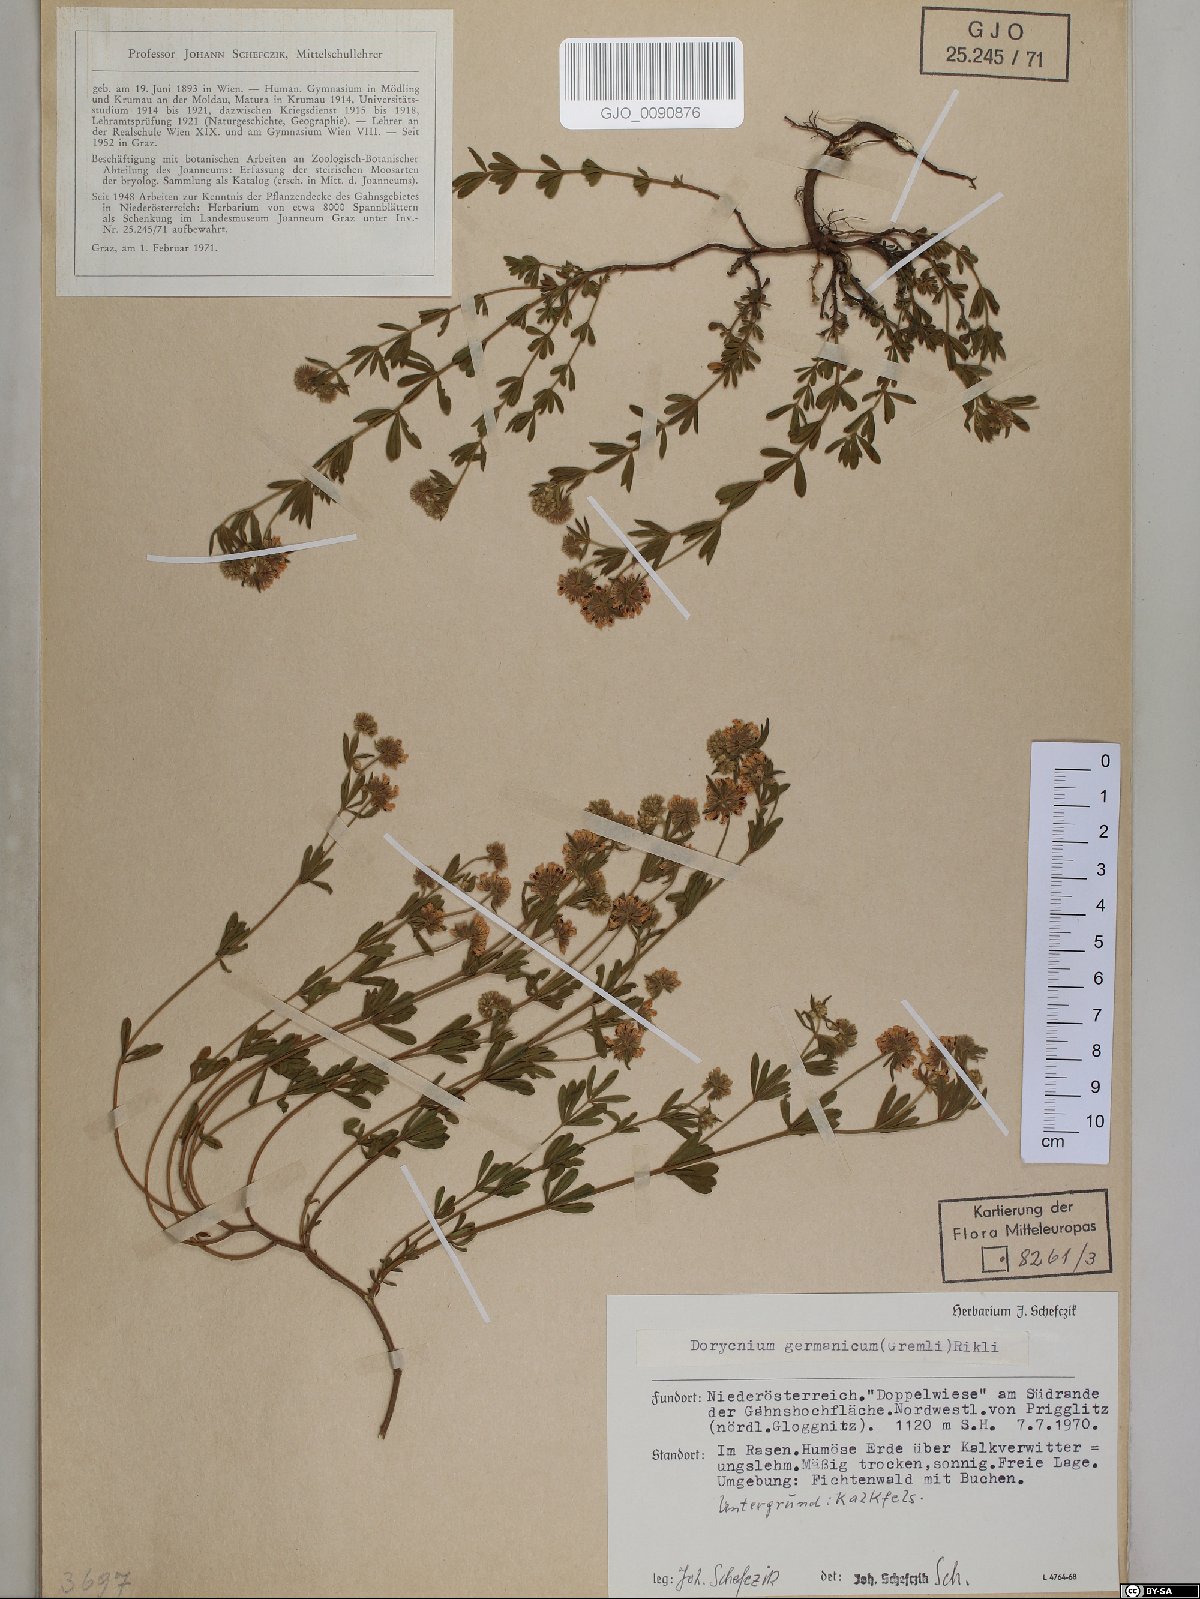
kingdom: Plantae
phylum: Tracheophyta
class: Magnoliopsida
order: Fabales
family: Fabaceae
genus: Lotus
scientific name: Lotus germanicus
